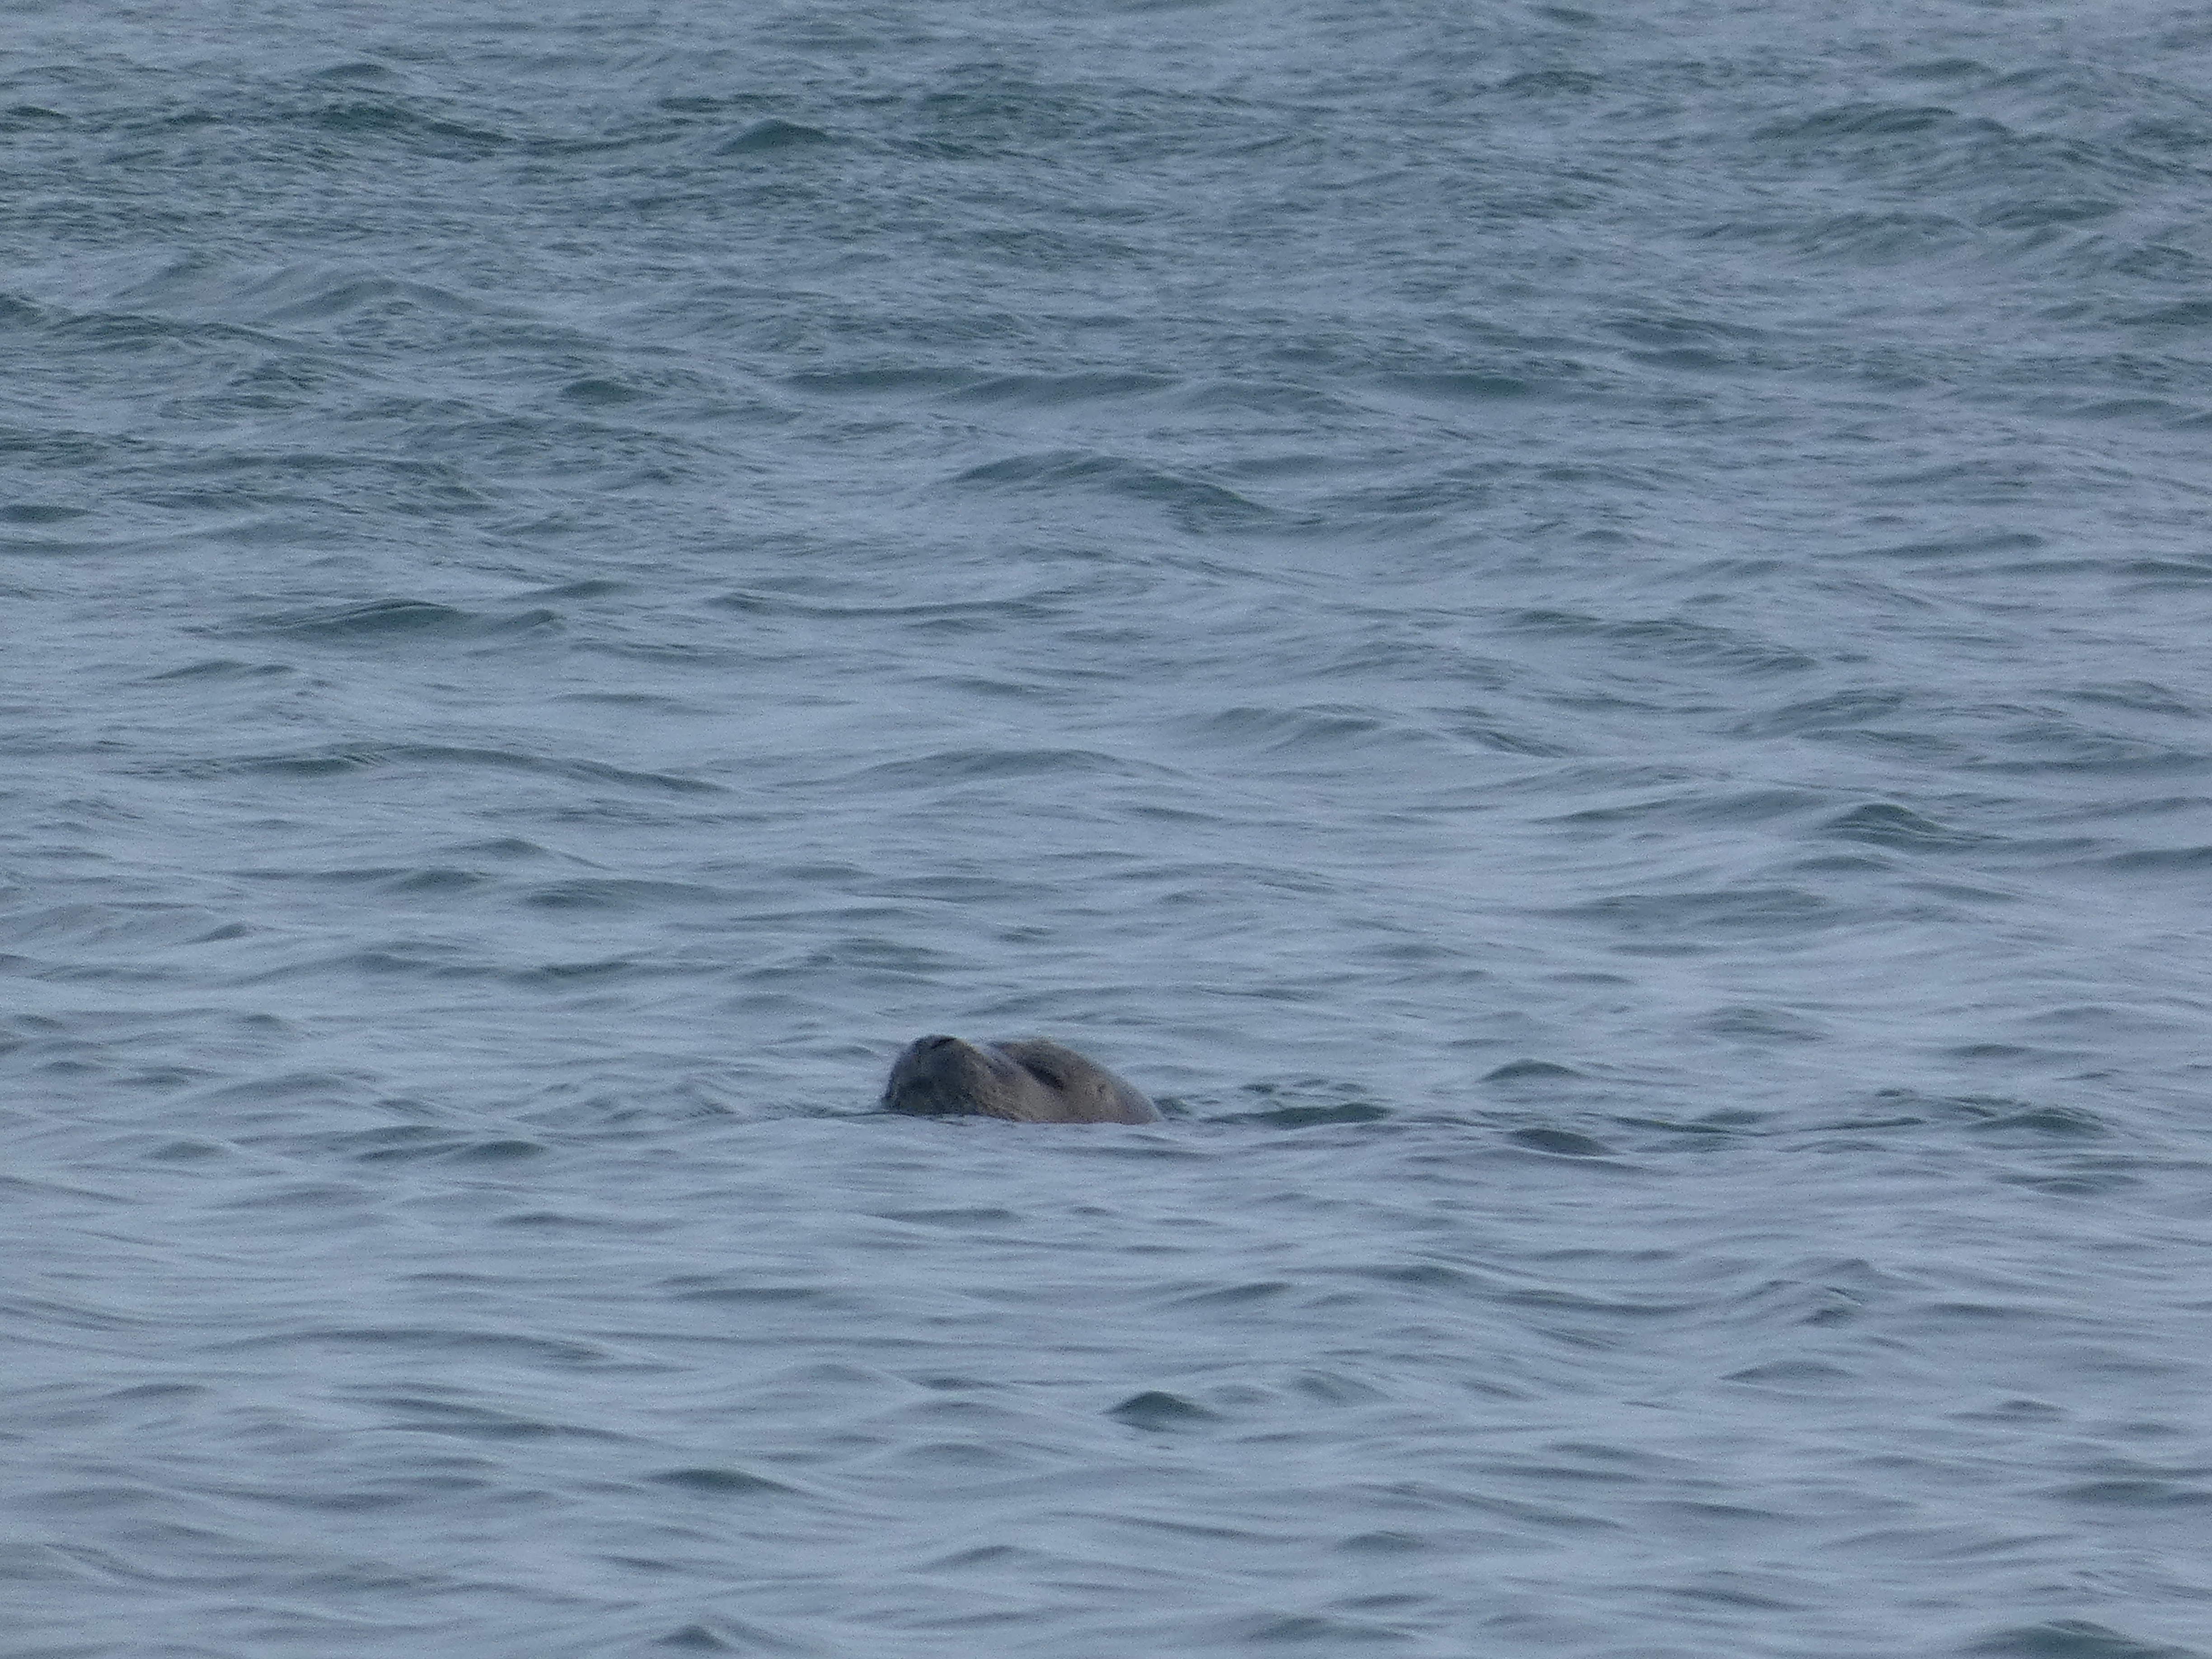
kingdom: Animalia
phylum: Chordata
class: Mammalia
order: Carnivora
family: Phocidae
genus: Phoca
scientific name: Phoca vitulina
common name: Spættet sæl
